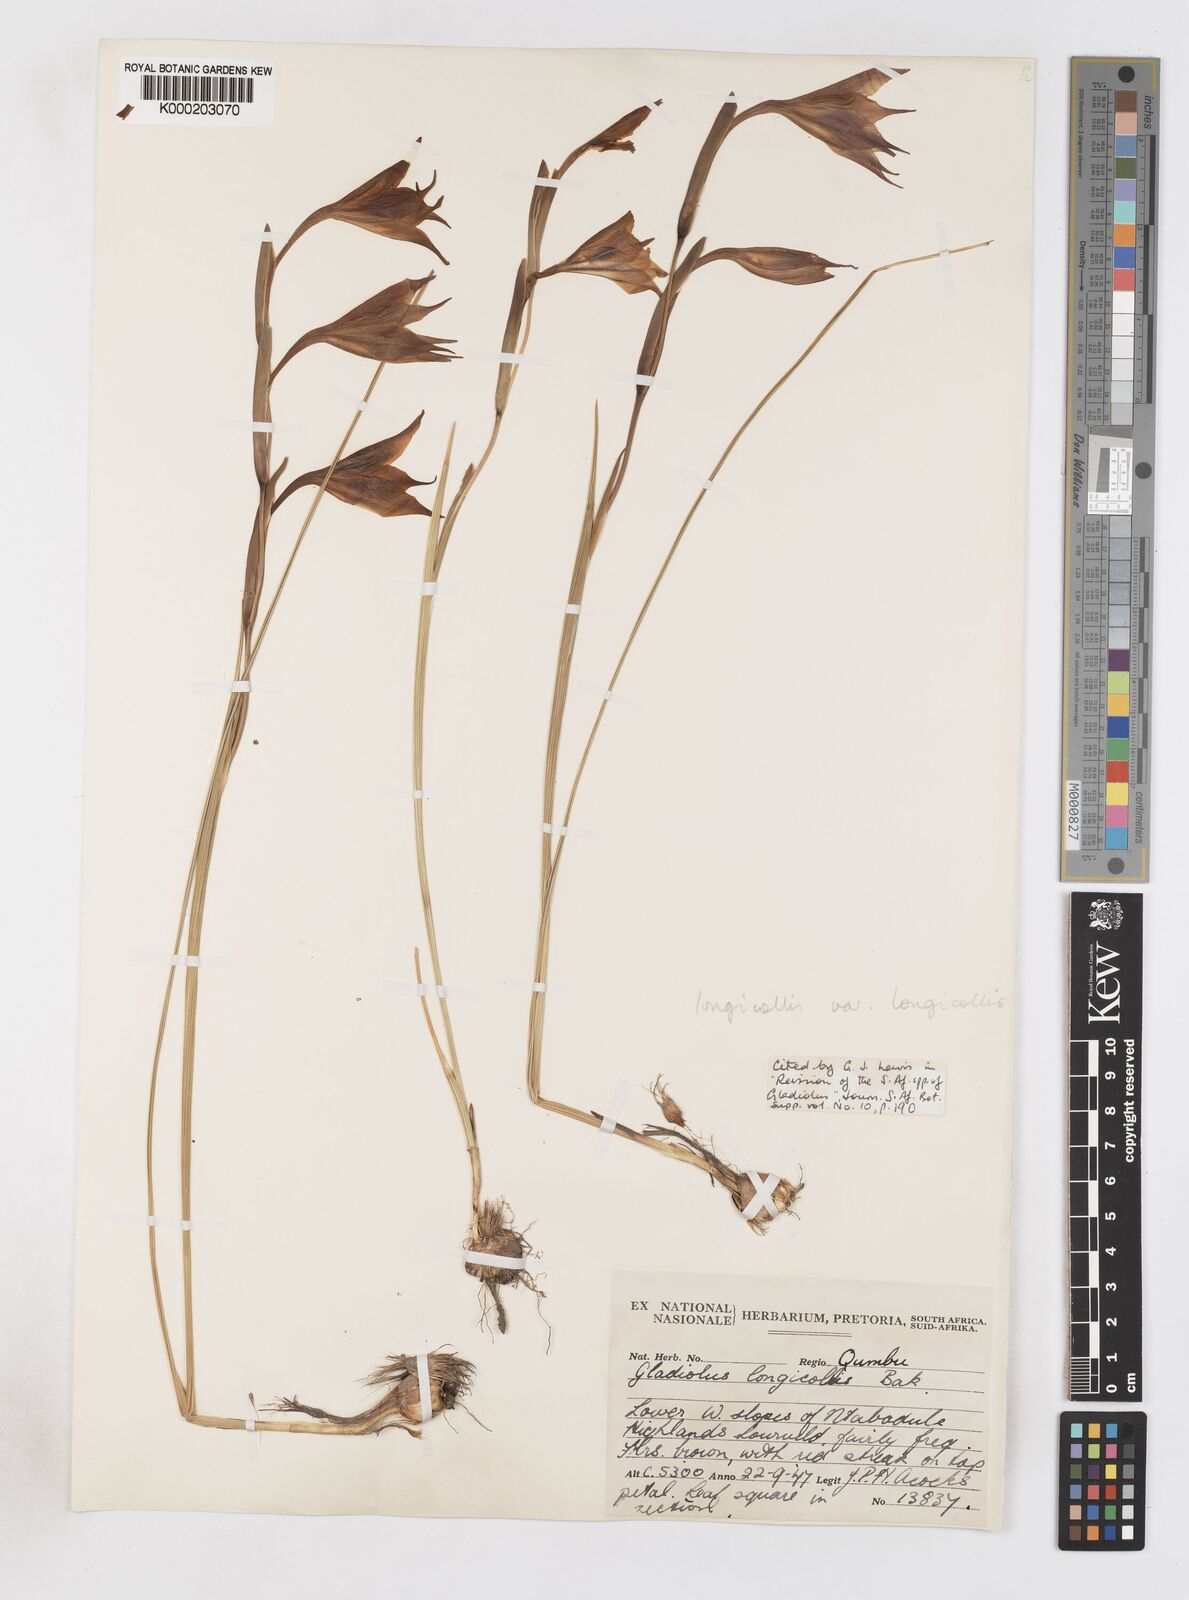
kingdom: Plantae
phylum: Tracheophyta
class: Liliopsida
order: Asparagales
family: Iridaceae
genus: Gladiolus
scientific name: Gladiolus longicollis
